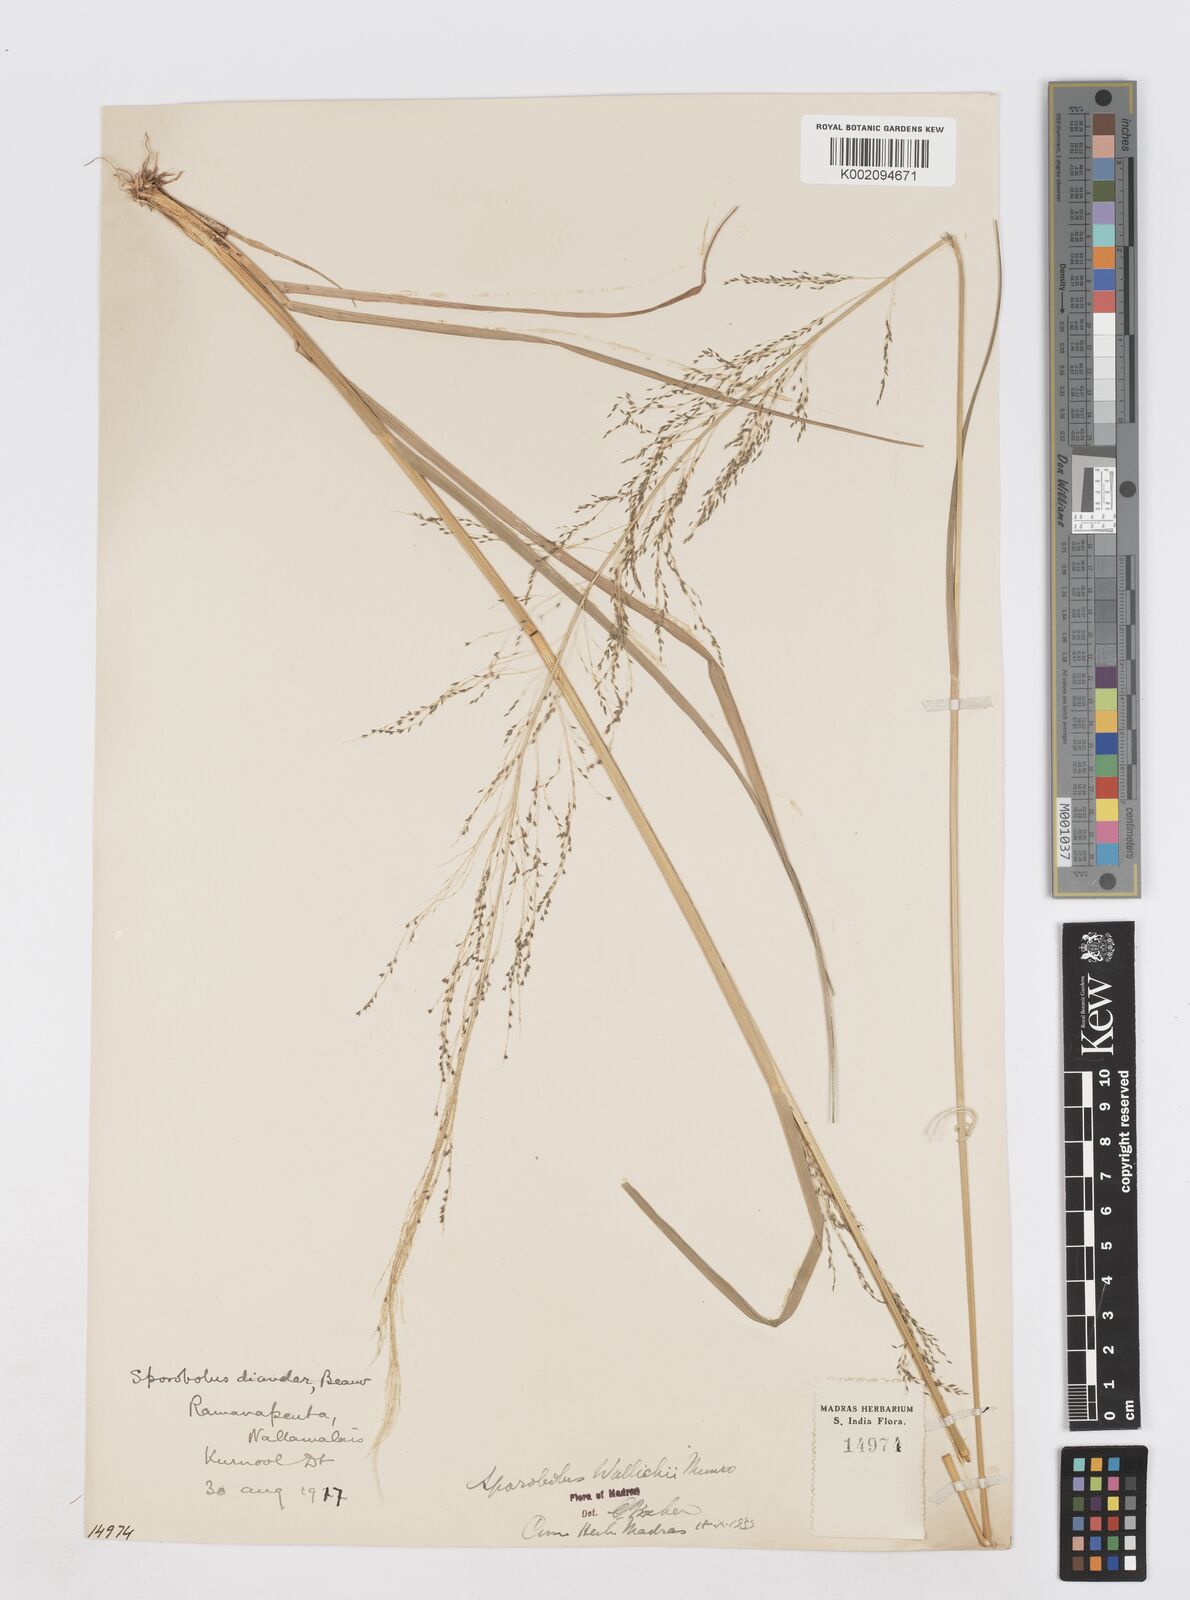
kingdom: Plantae
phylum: Tracheophyta
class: Liliopsida
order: Poales
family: Poaceae
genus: Sporobolus
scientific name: Sporobolus wallichii
